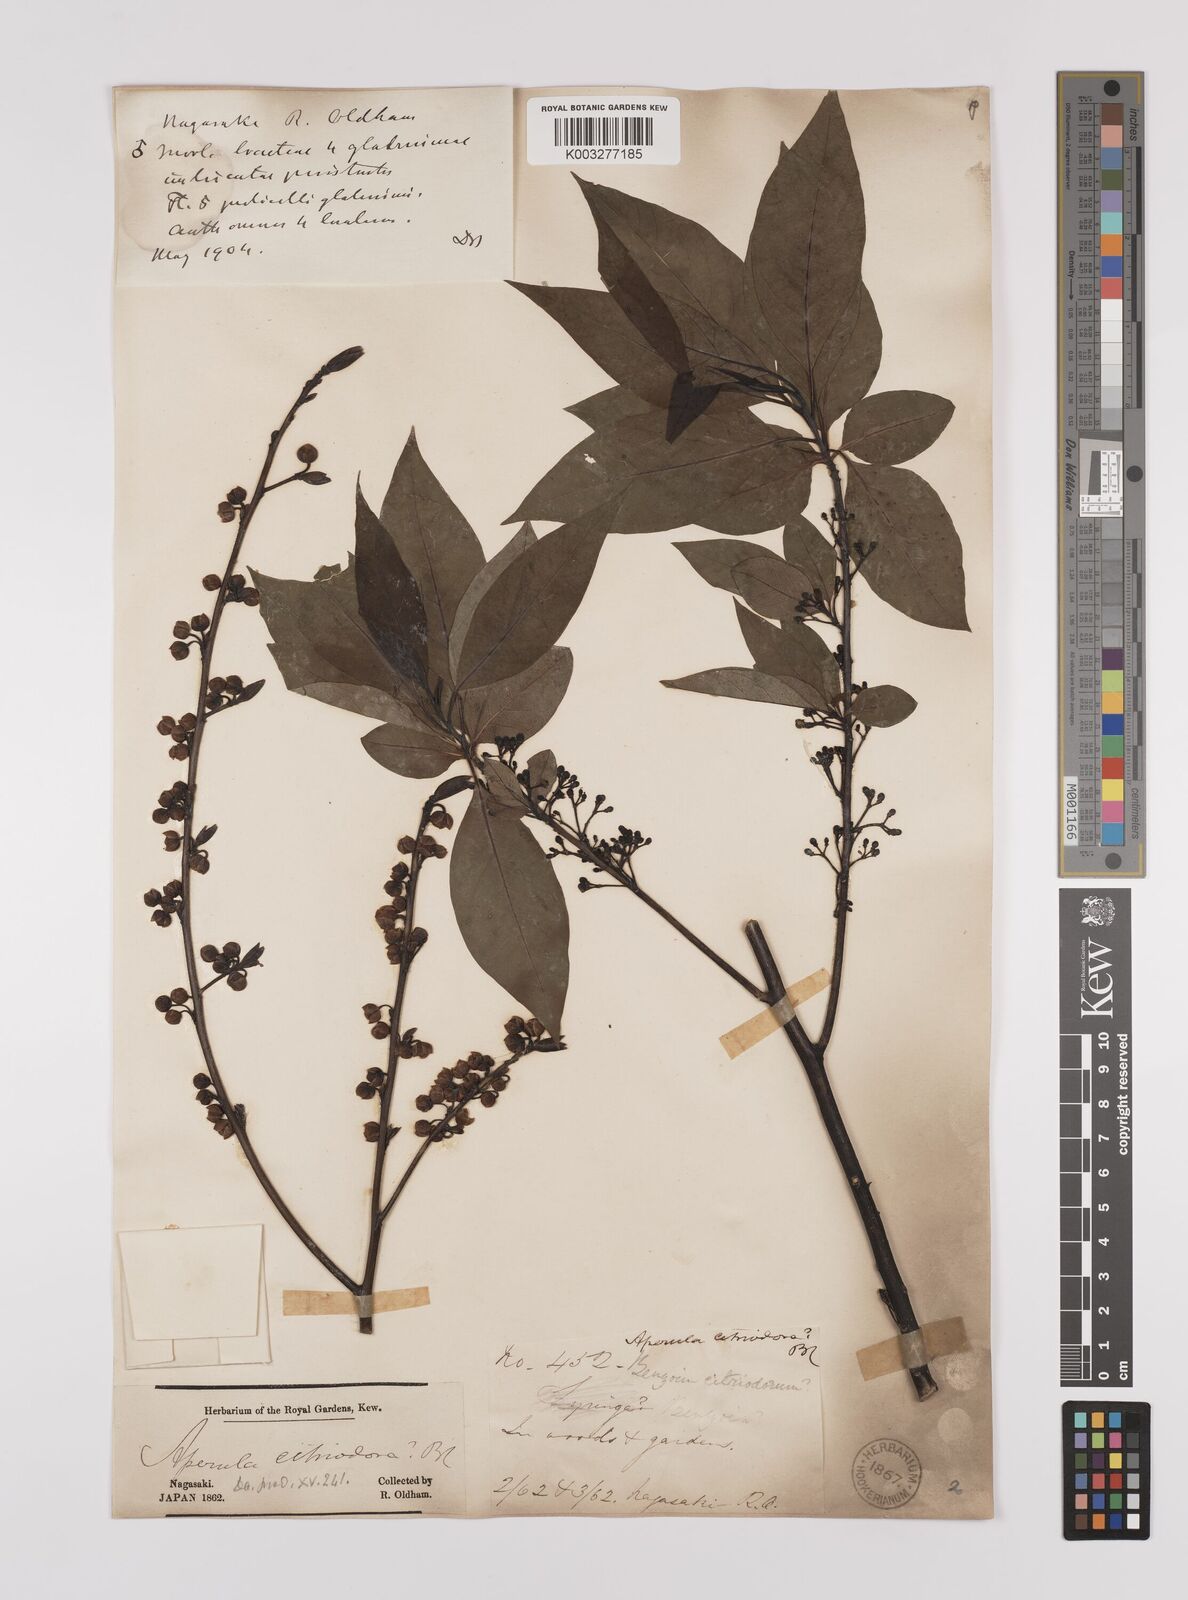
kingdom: Plantae
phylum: Tracheophyta
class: Magnoliopsida
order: Laurales
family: Lauraceae
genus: Lindera
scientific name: Lindera citriodora
